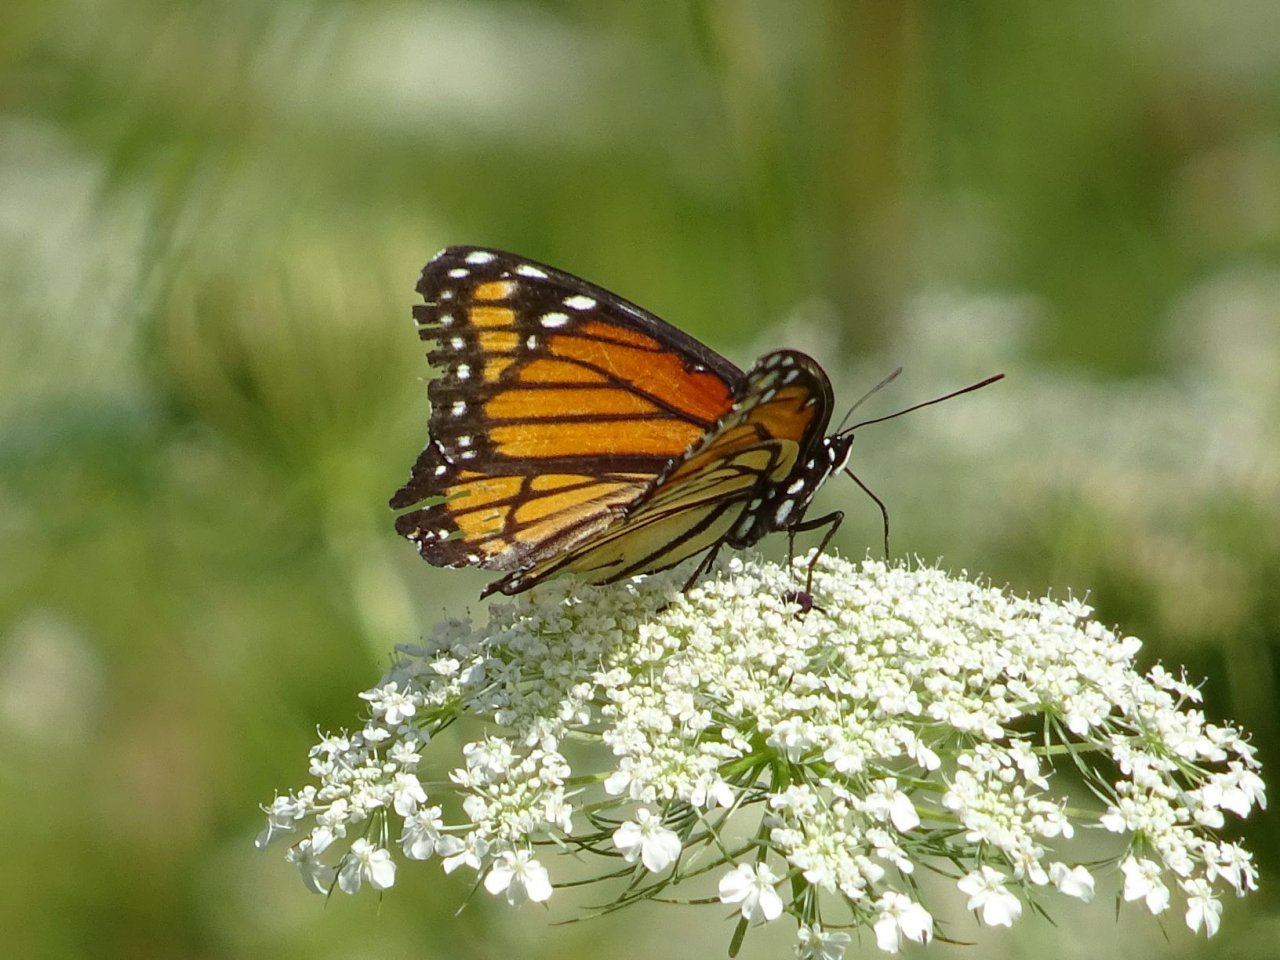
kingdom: Animalia
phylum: Arthropoda
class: Insecta
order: Lepidoptera
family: Nymphalidae
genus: Limenitis
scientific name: Limenitis archippus
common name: Viceroy
